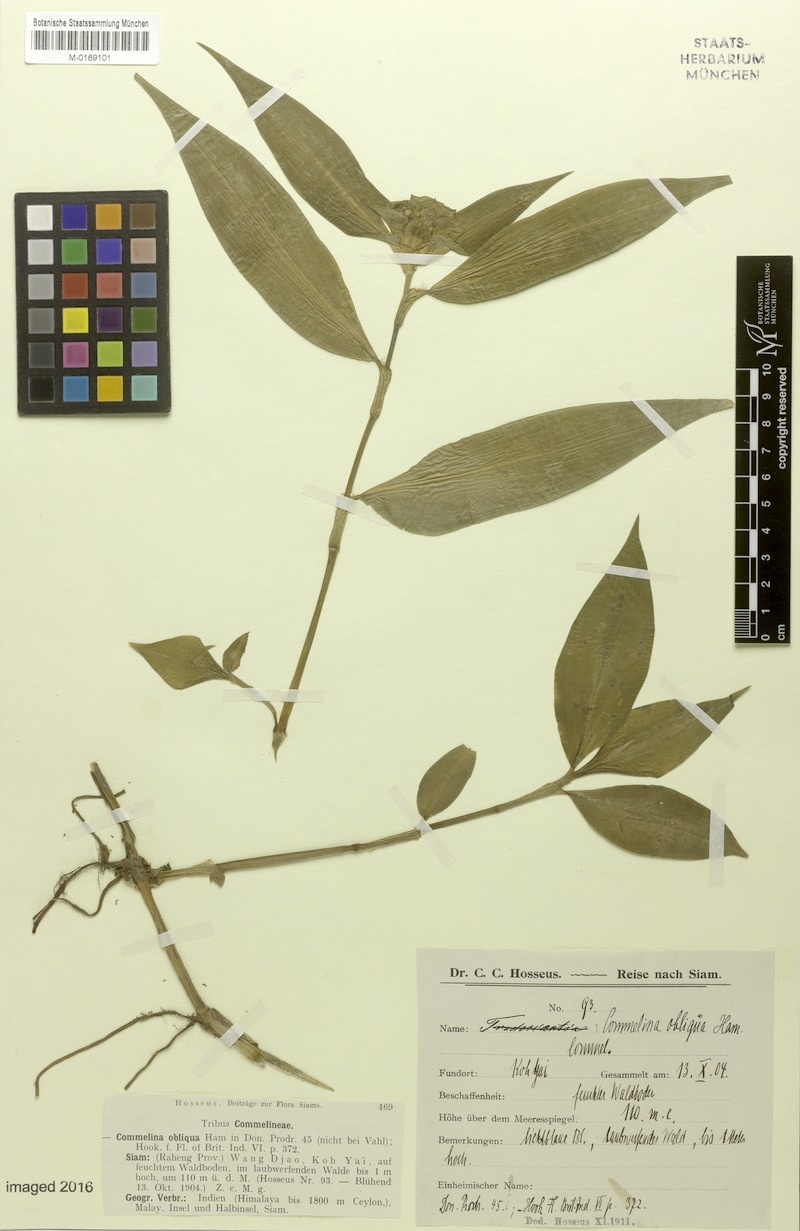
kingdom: Plantae
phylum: Tracheophyta
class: Liliopsida
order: Commelinales
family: Commelinaceae
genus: Commelina
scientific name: Commelina paludosa
